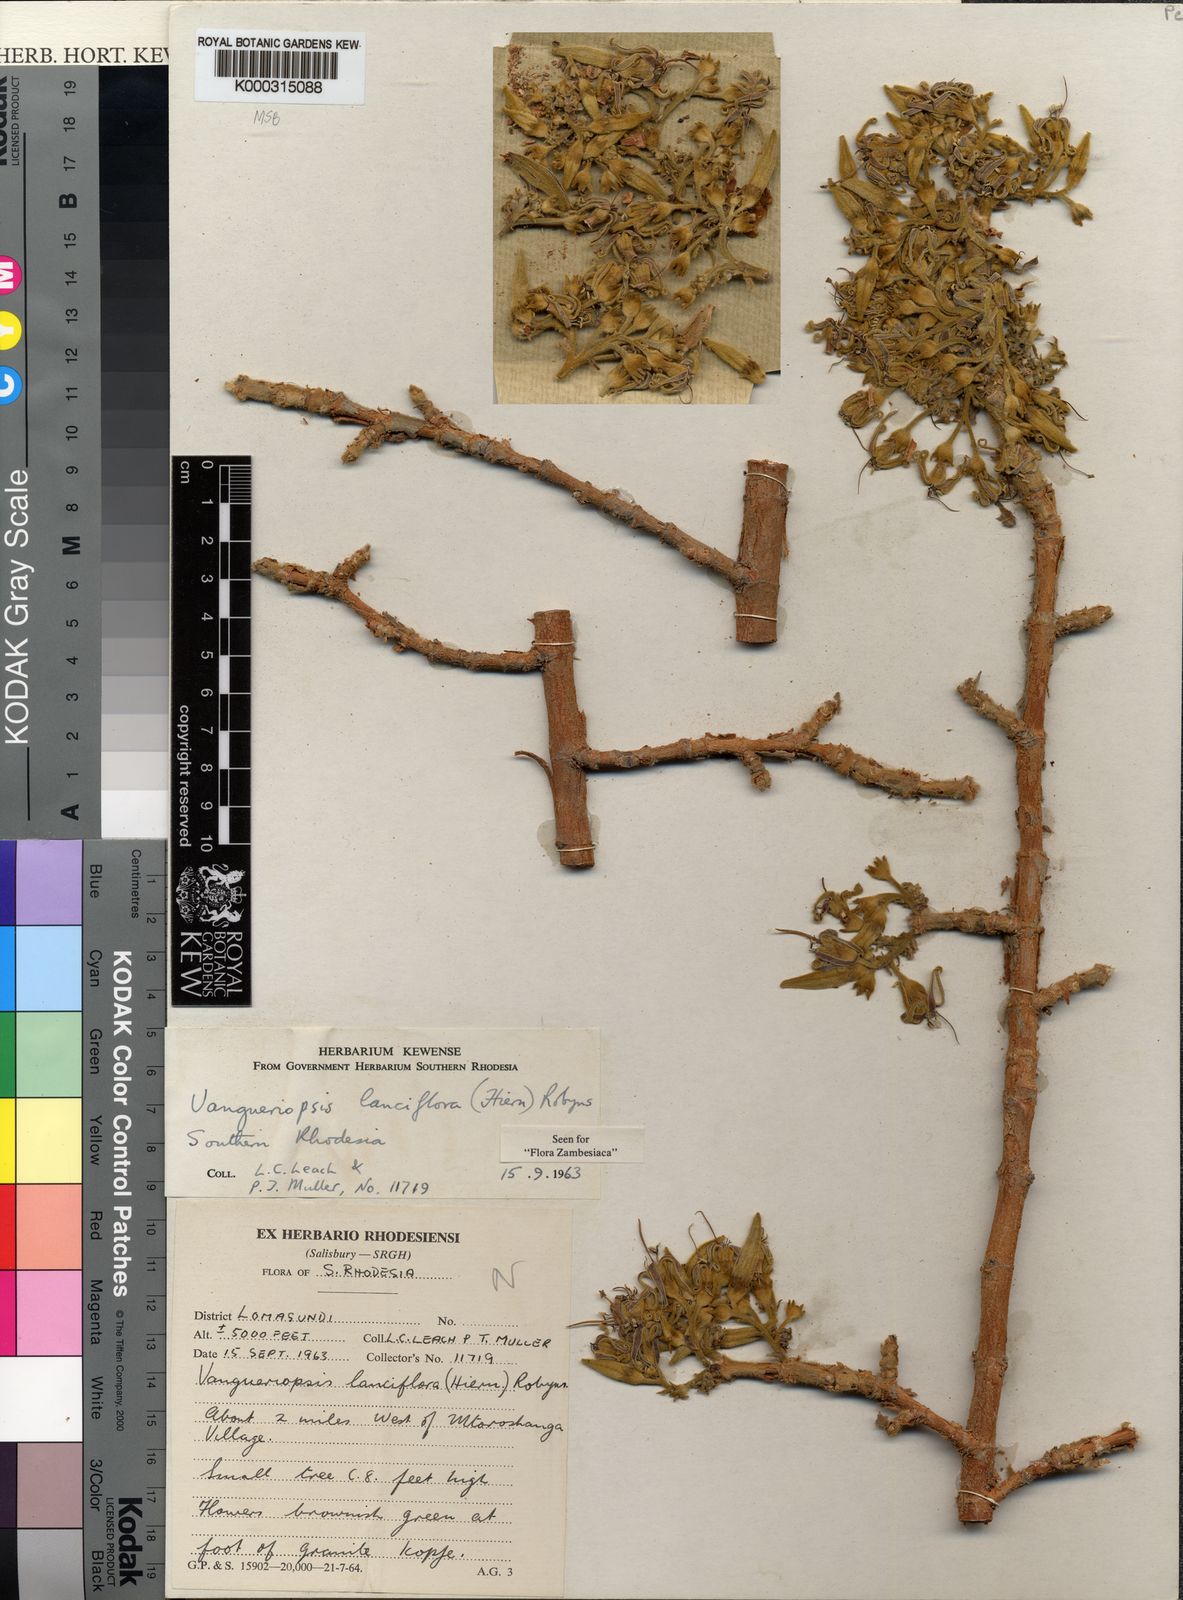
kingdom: Plantae
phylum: Tracheophyta
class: Magnoliopsida
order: Gentianales
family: Rubiaceae
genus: Vangueriopsis
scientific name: Vangueriopsis
